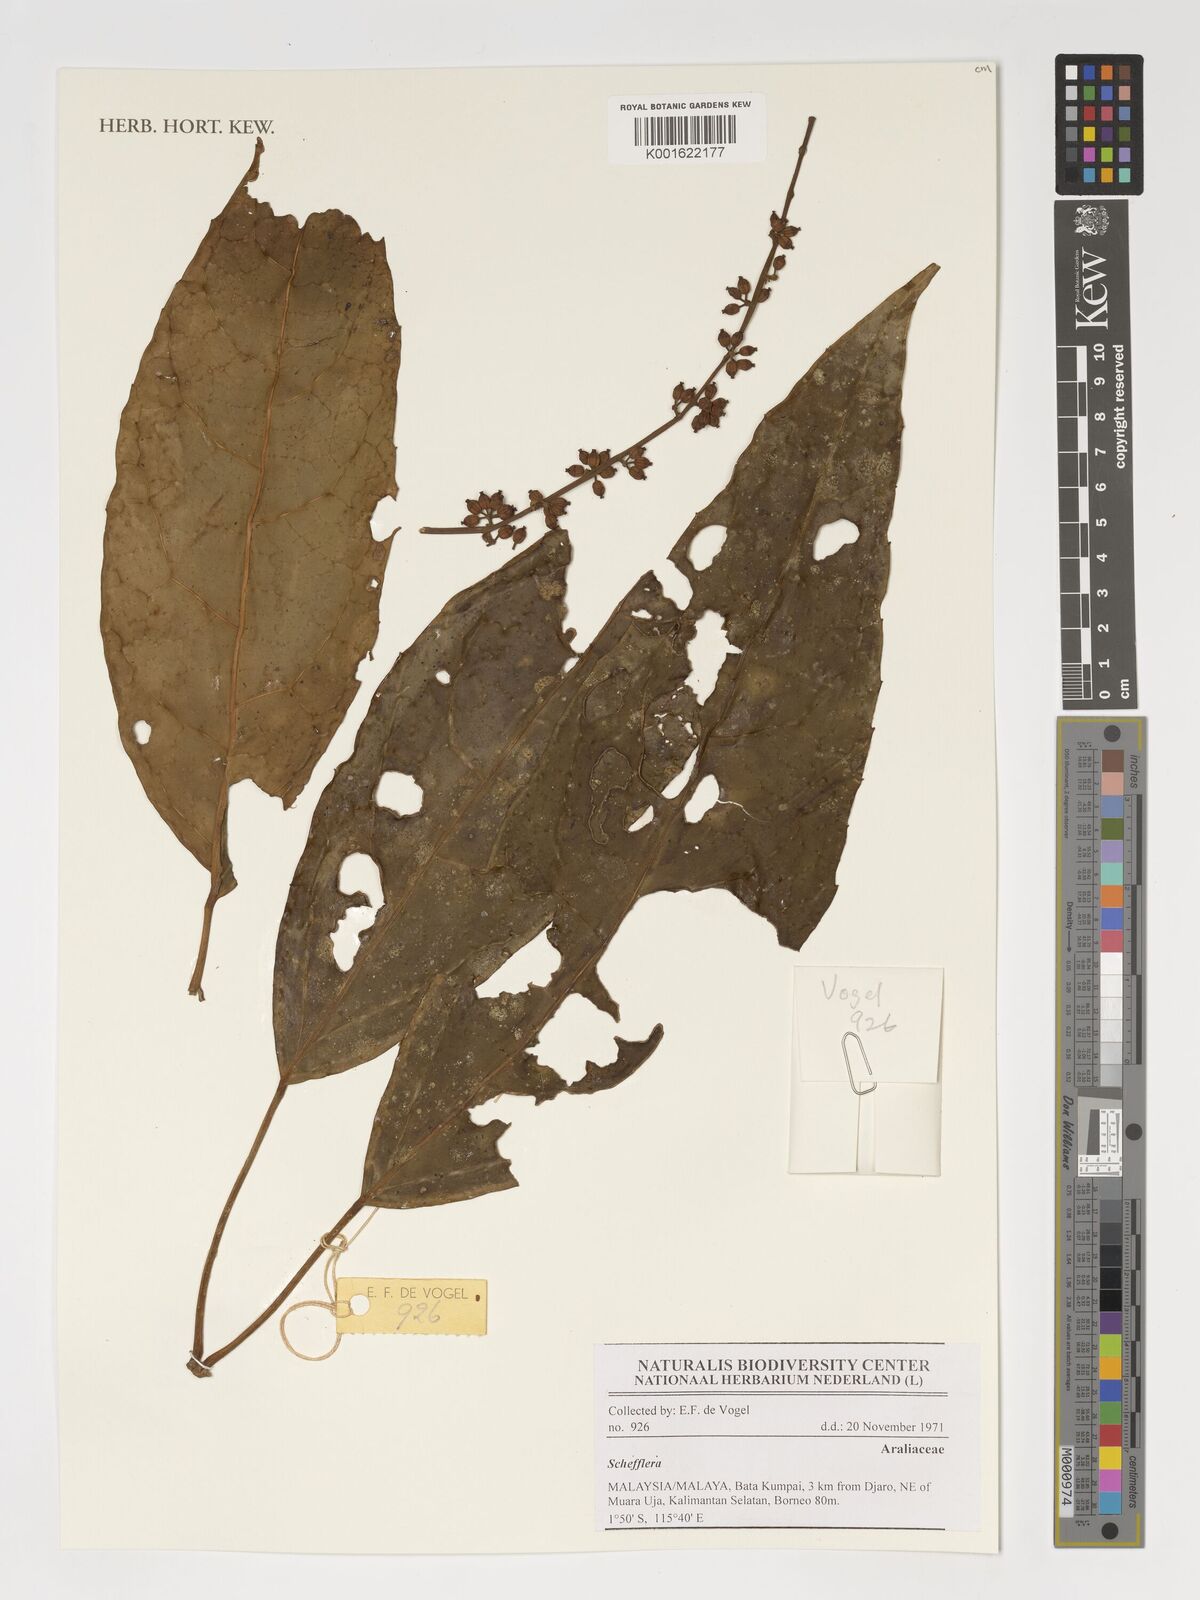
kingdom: Plantae
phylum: Tracheophyta
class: Magnoliopsida
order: Apiales
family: Araliaceae
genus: Schefflera
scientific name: Schefflera
